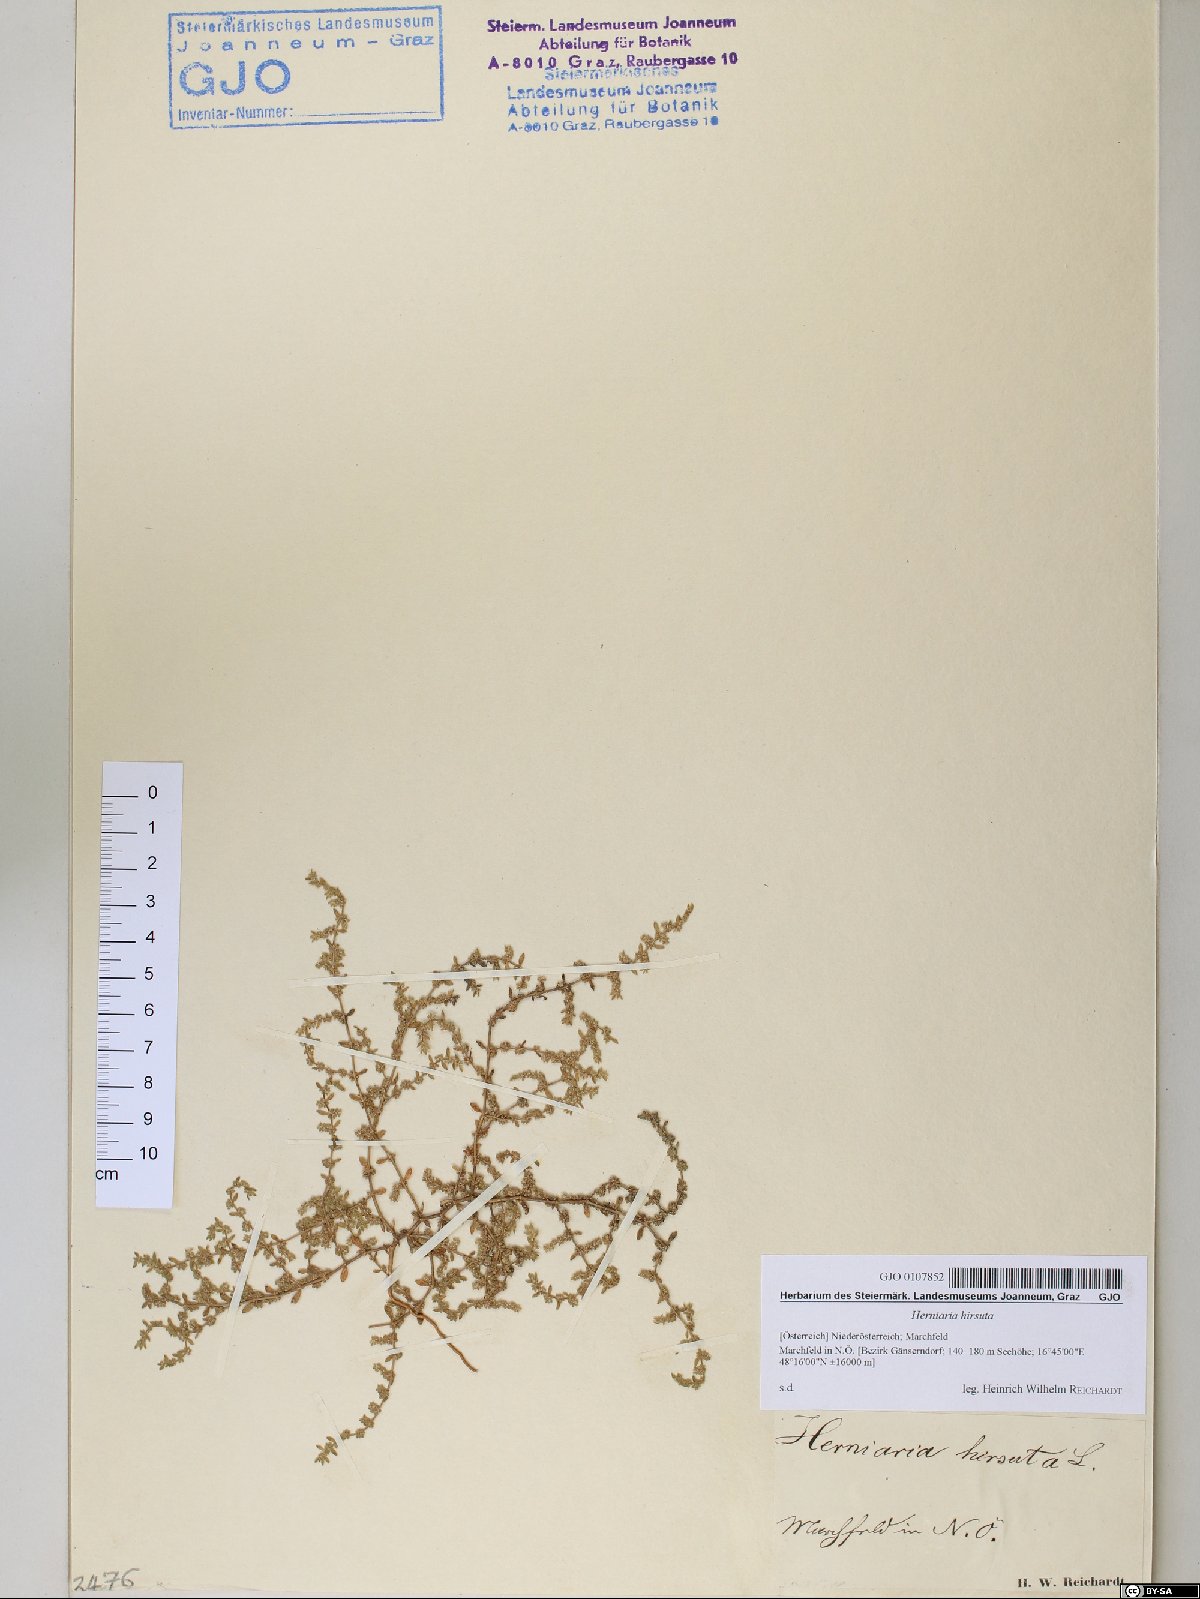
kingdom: Plantae
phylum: Tracheophyta
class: Magnoliopsida
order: Caryophyllales
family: Caryophyllaceae
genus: Herniaria
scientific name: Herniaria hirsuta
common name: Hairy rupturewort
